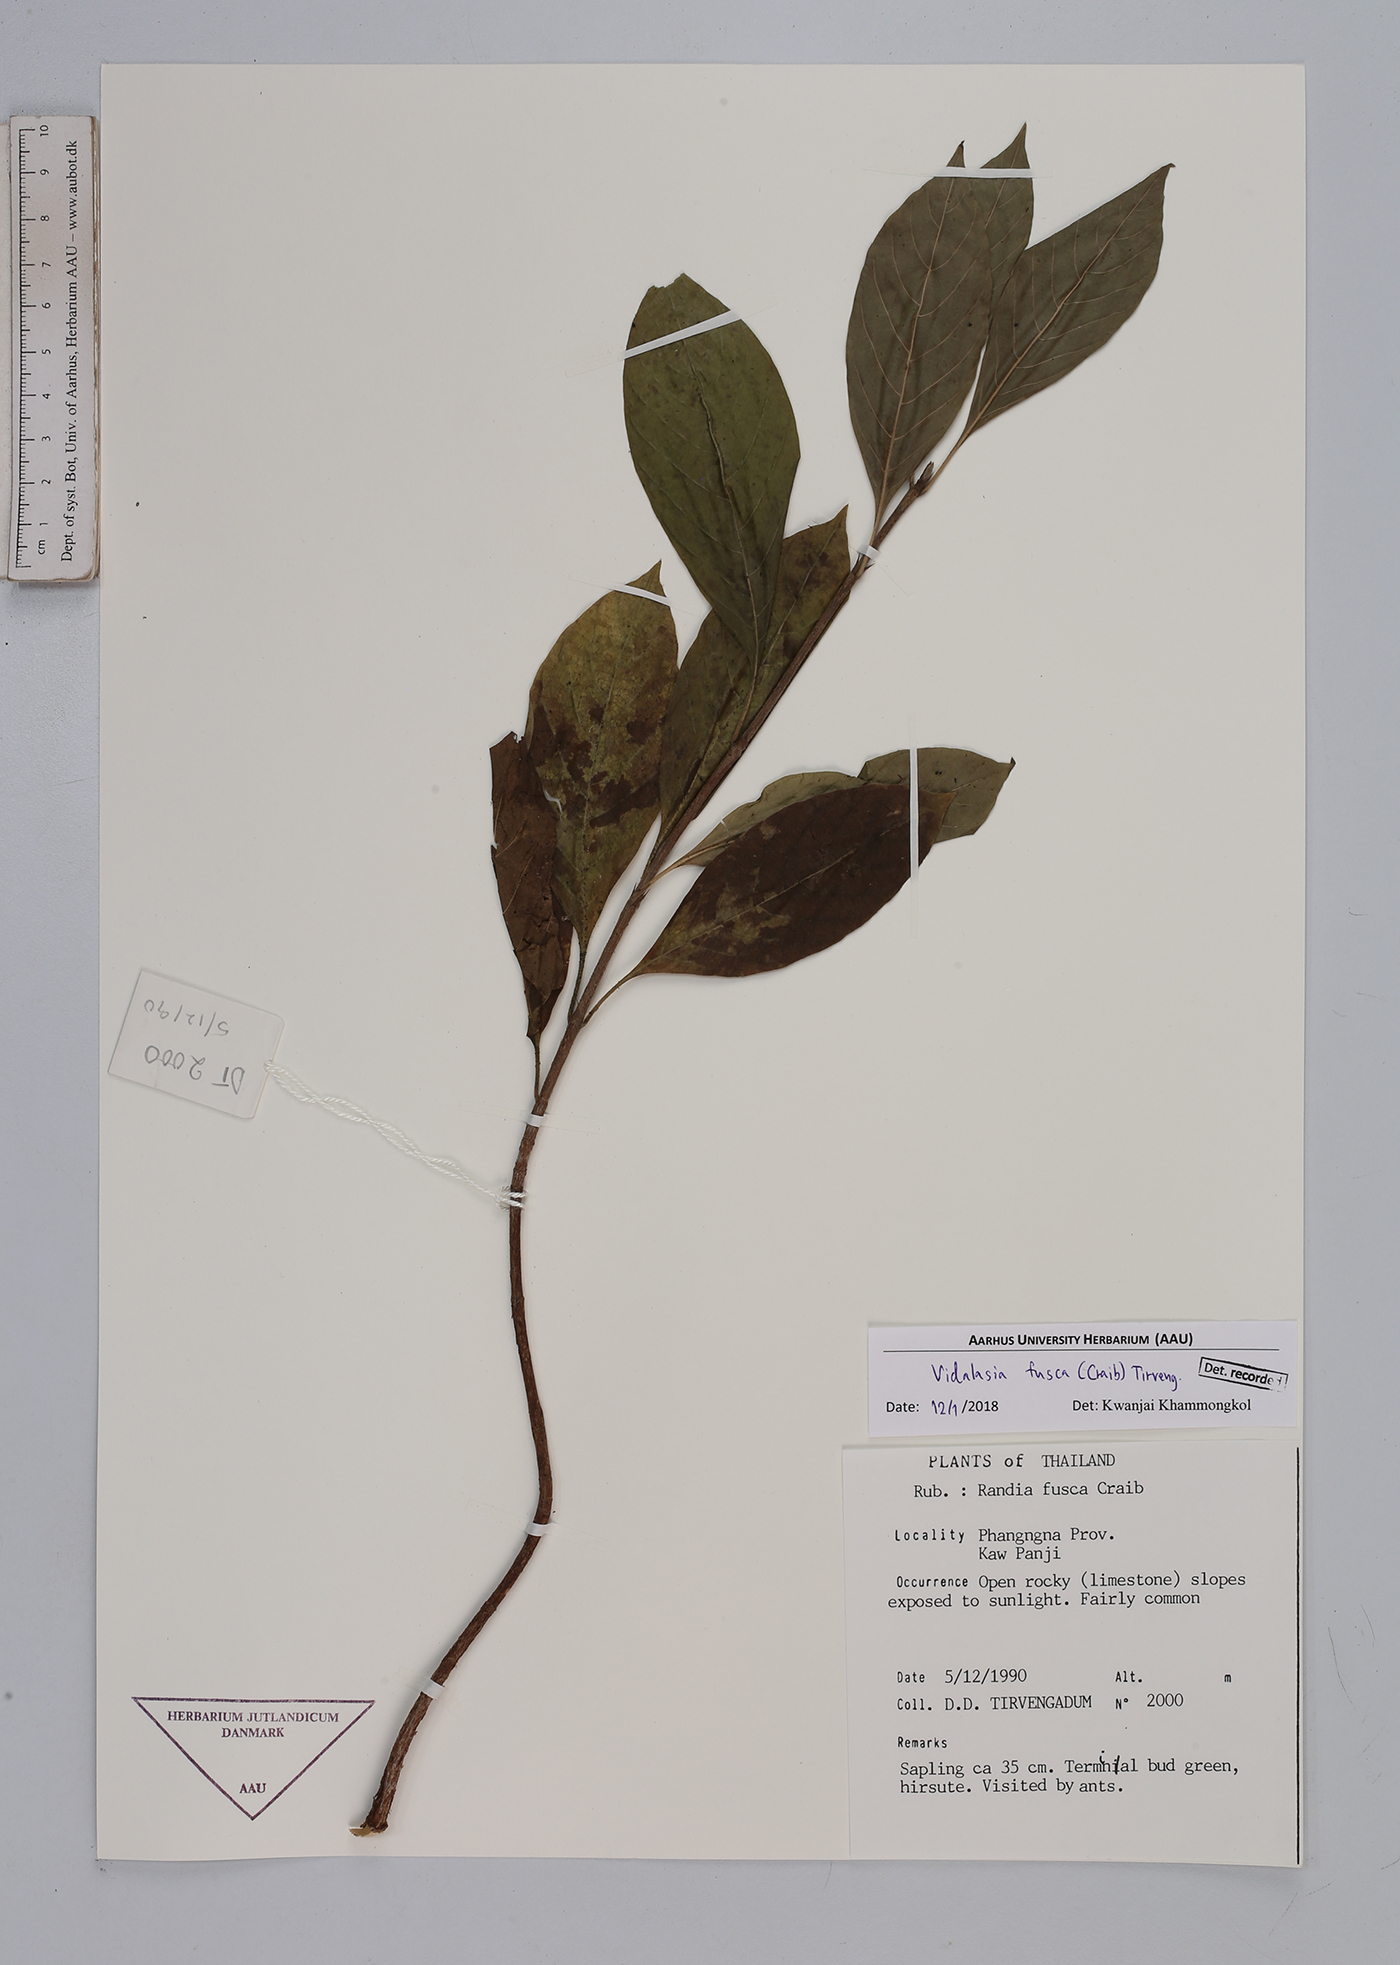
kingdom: Plantae
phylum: Tracheophyta
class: Magnoliopsida
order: Gentianales
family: Rubiaceae
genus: Vidalasia
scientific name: Vidalasia fusca
